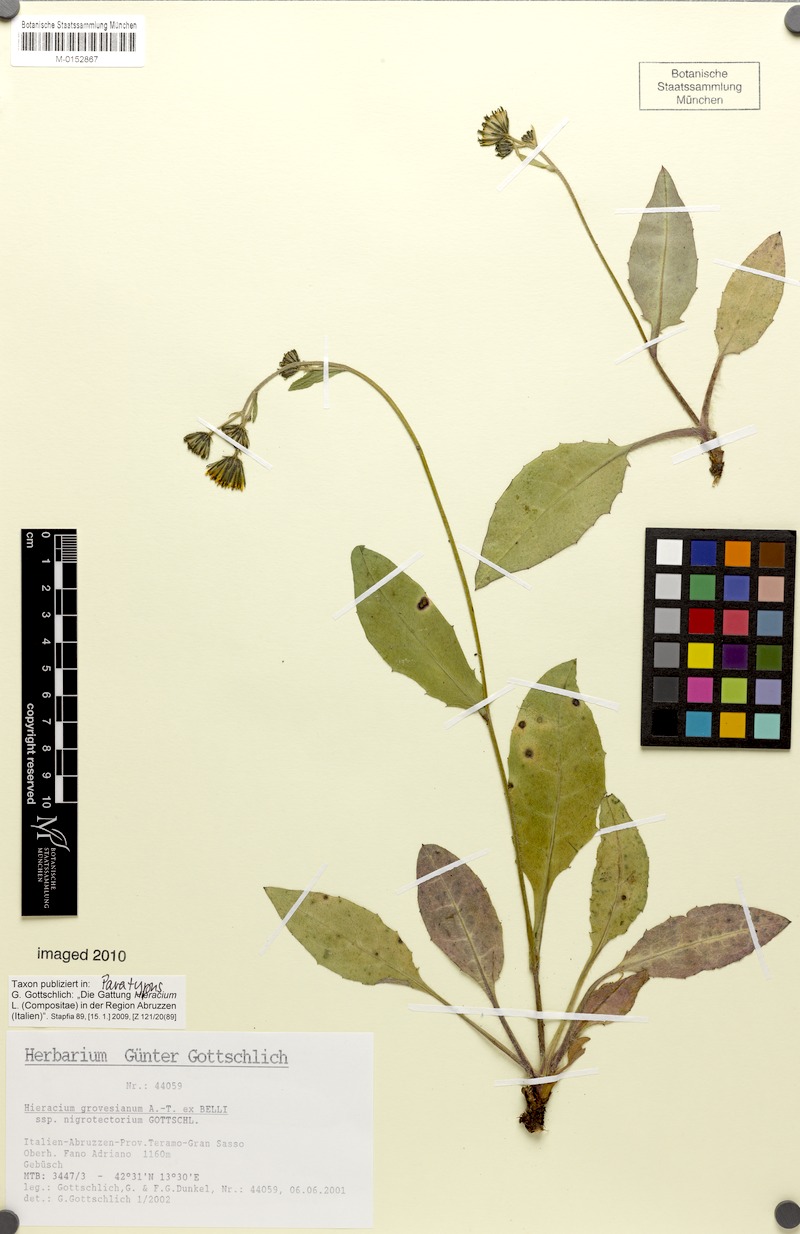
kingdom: Plantae
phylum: Tracheophyta
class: Magnoliopsida
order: Asterales
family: Asteraceae
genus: Hieracium
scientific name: Hieracium grovesianum
